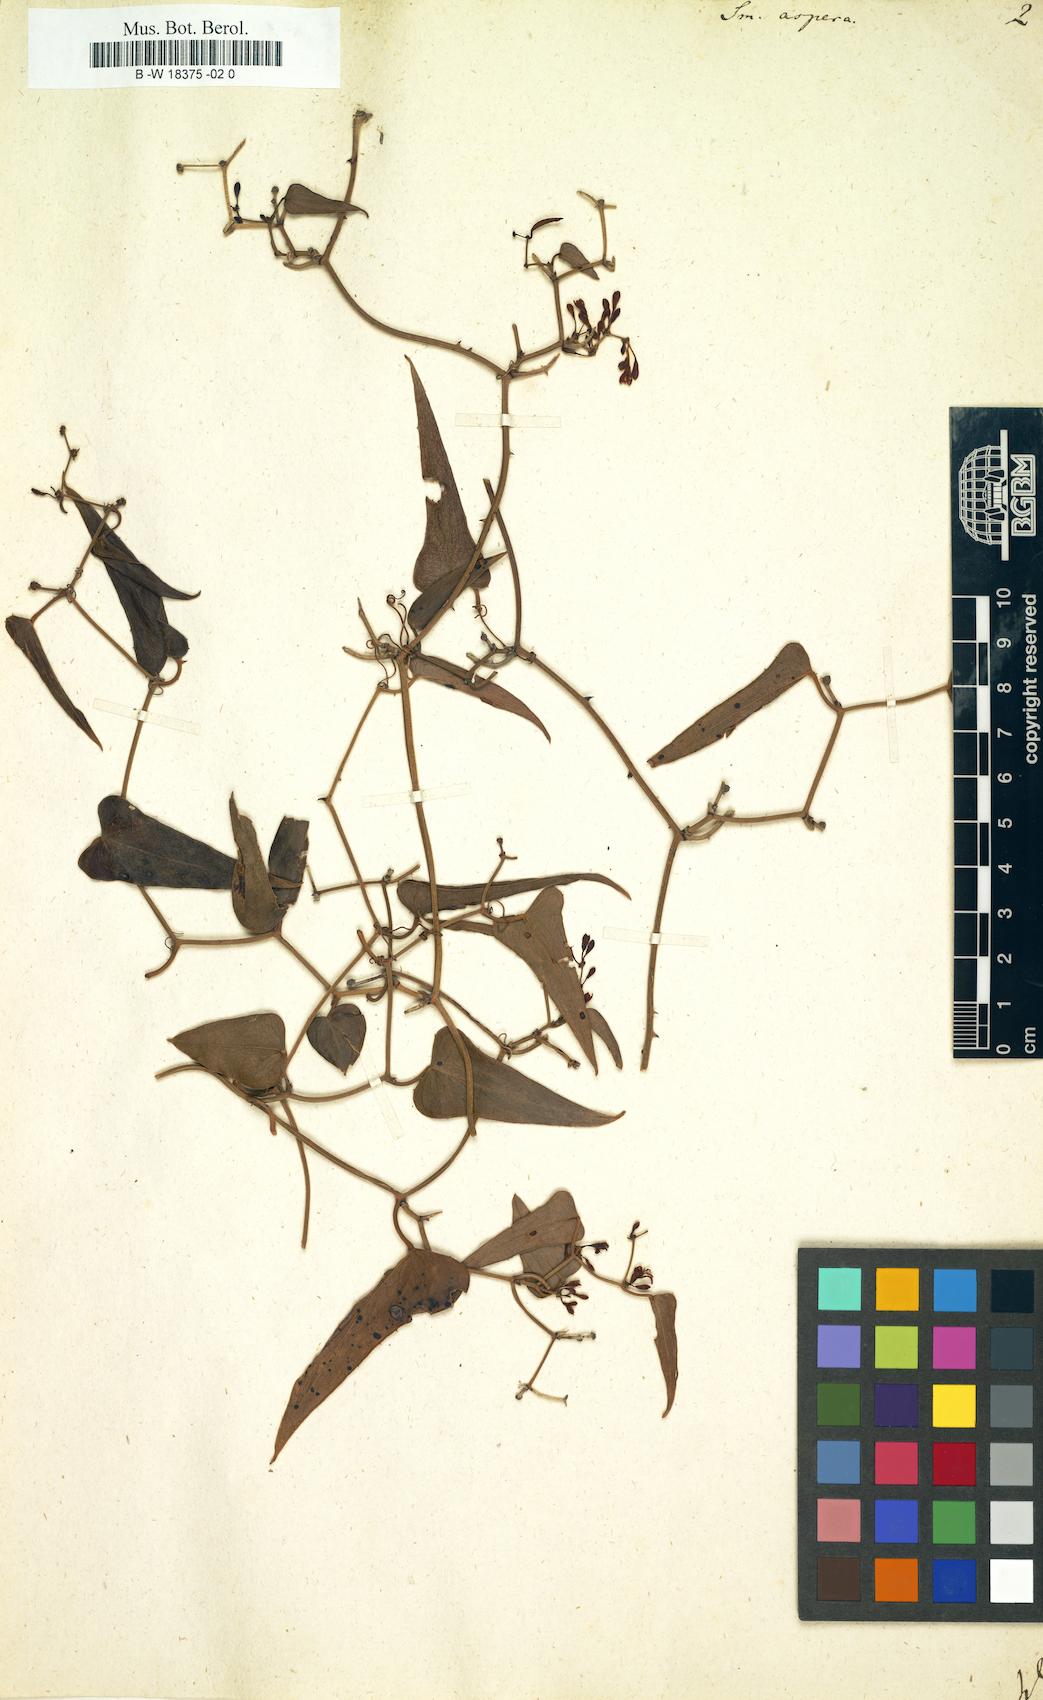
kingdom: Plantae
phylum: Tracheophyta
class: Liliopsida
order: Liliales
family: Smilacaceae
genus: Smilax
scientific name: Smilax aspera
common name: Common smilax
